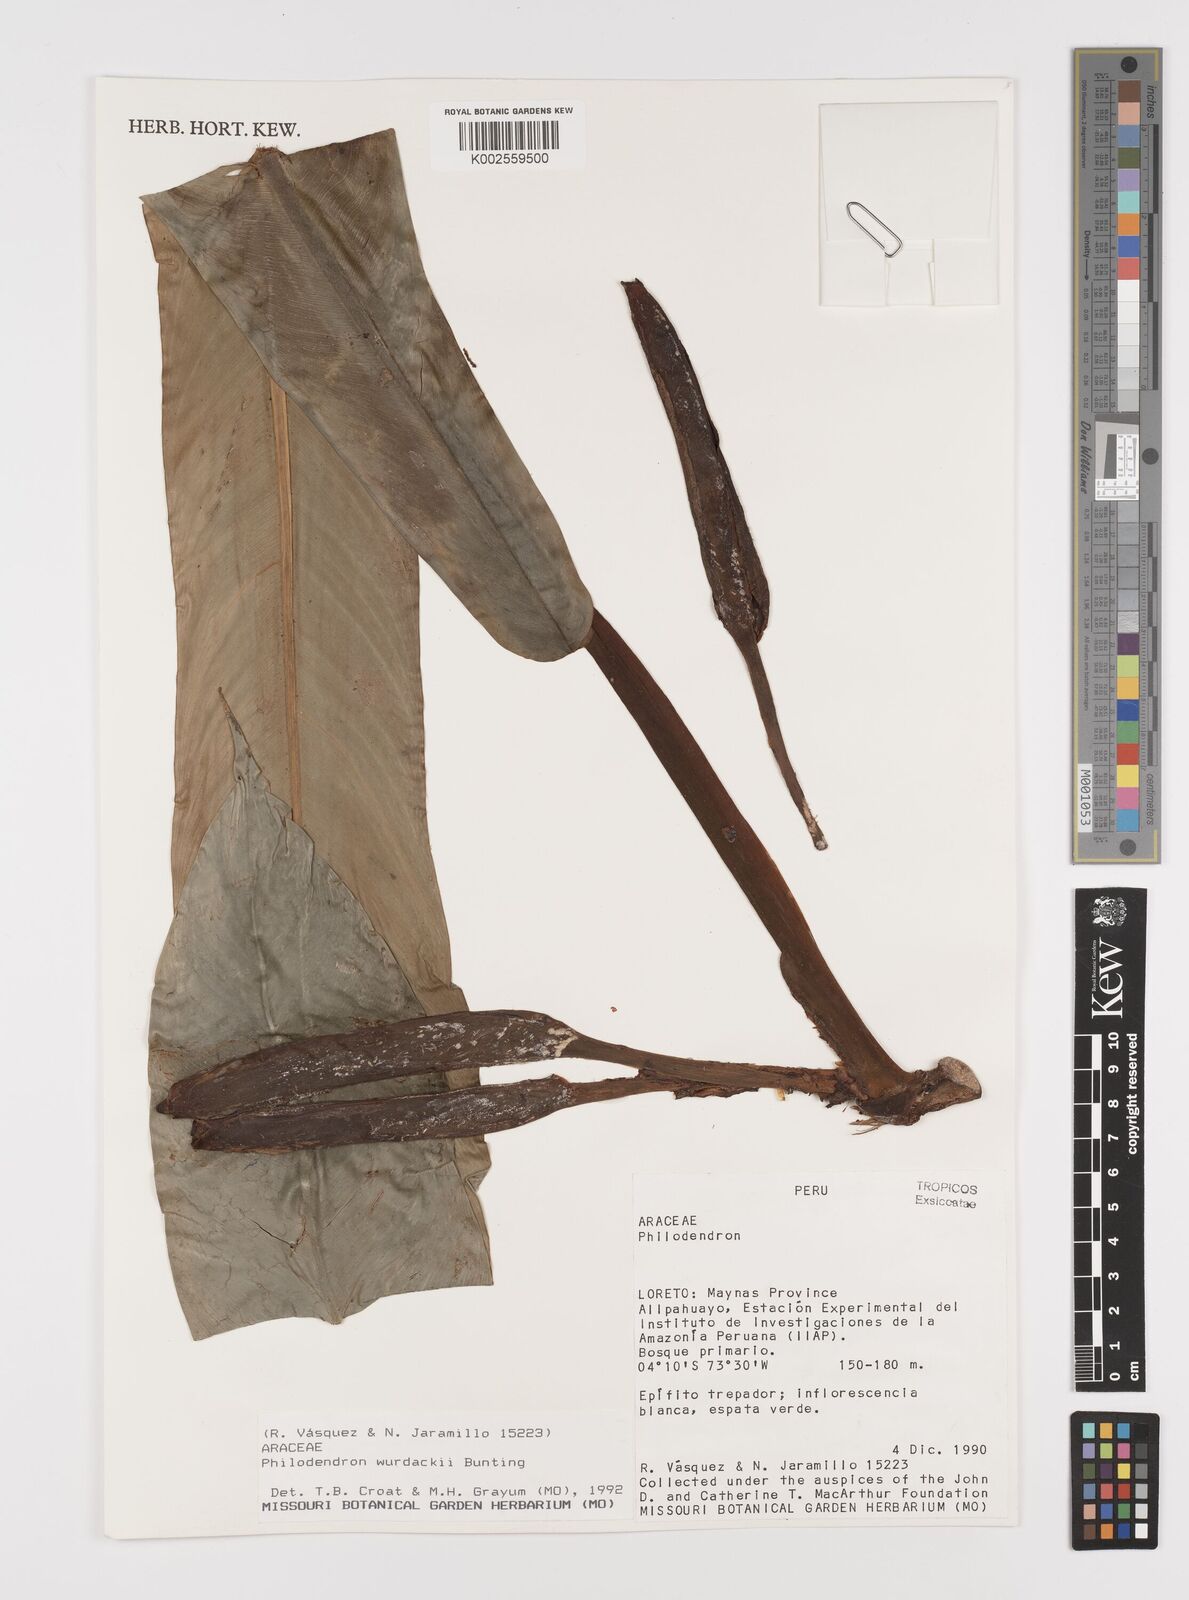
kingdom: Plantae
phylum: Tracheophyta
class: Liliopsida
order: Alismatales
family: Araceae
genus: Philodendron
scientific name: Philodendron wurdackii
